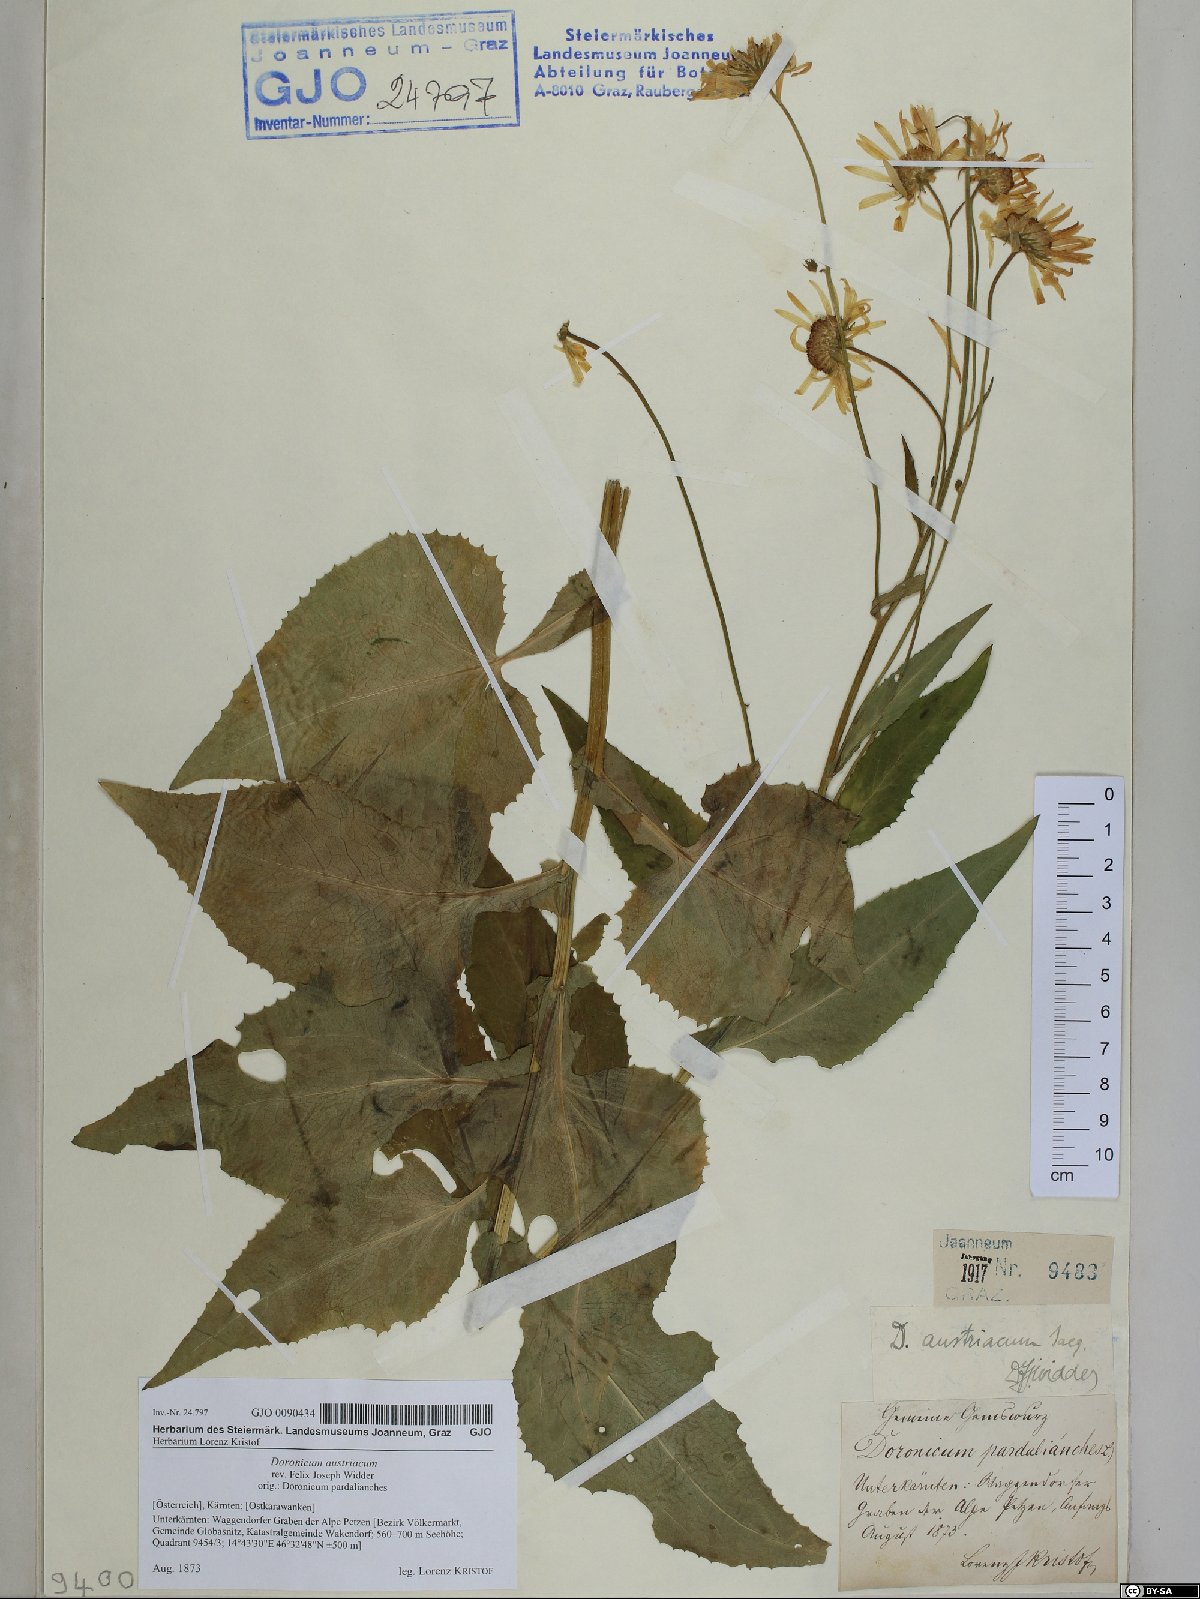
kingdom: Plantae
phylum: Tracheophyta
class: Magnoliopsida
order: Asterales
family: Asteraceae
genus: Doronicum
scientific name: Doronicum austriacum
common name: Austrian leopard's-bane
